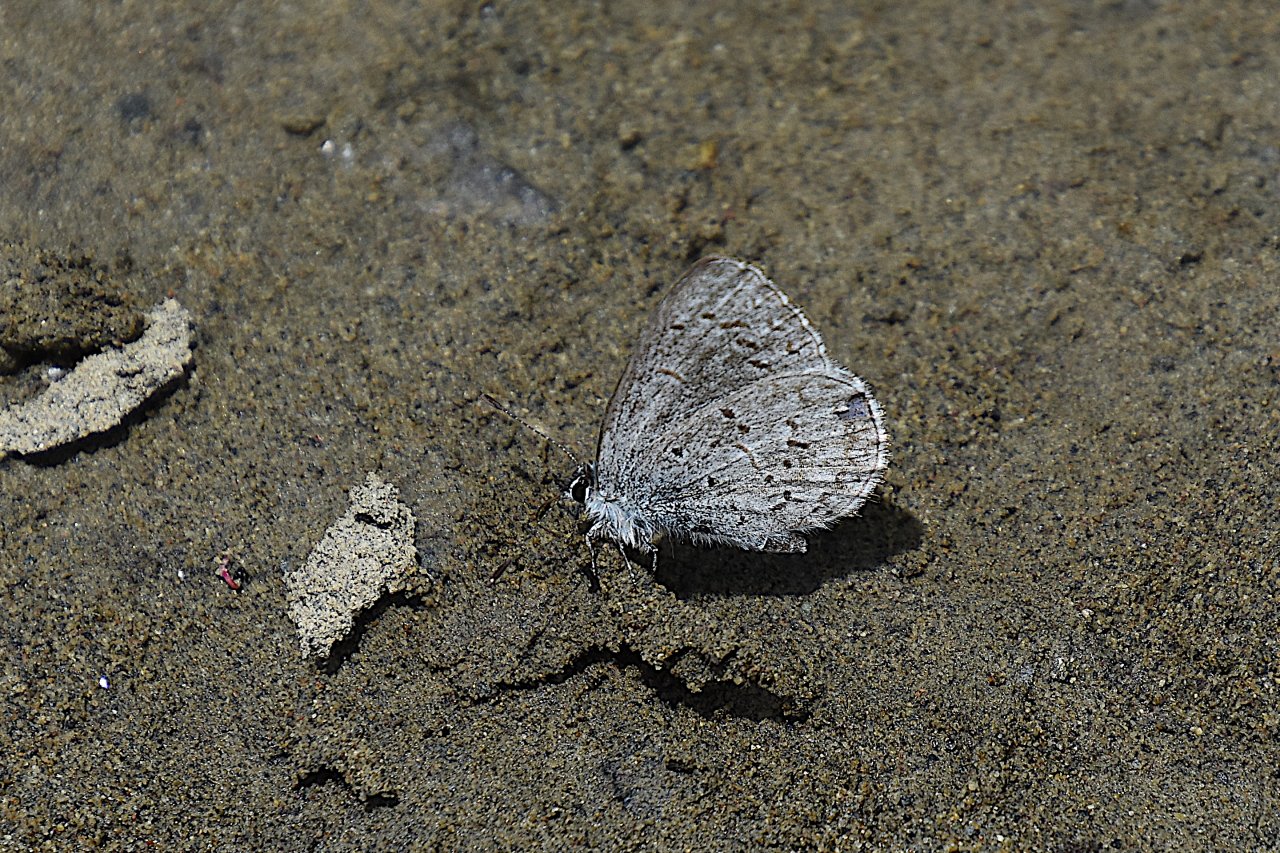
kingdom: Animalia
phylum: Arthropoda
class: Insecta
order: Lepidoptera
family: Lycaenidae
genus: Celastrina
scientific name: Celastrina ladon
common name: Echo Azure
